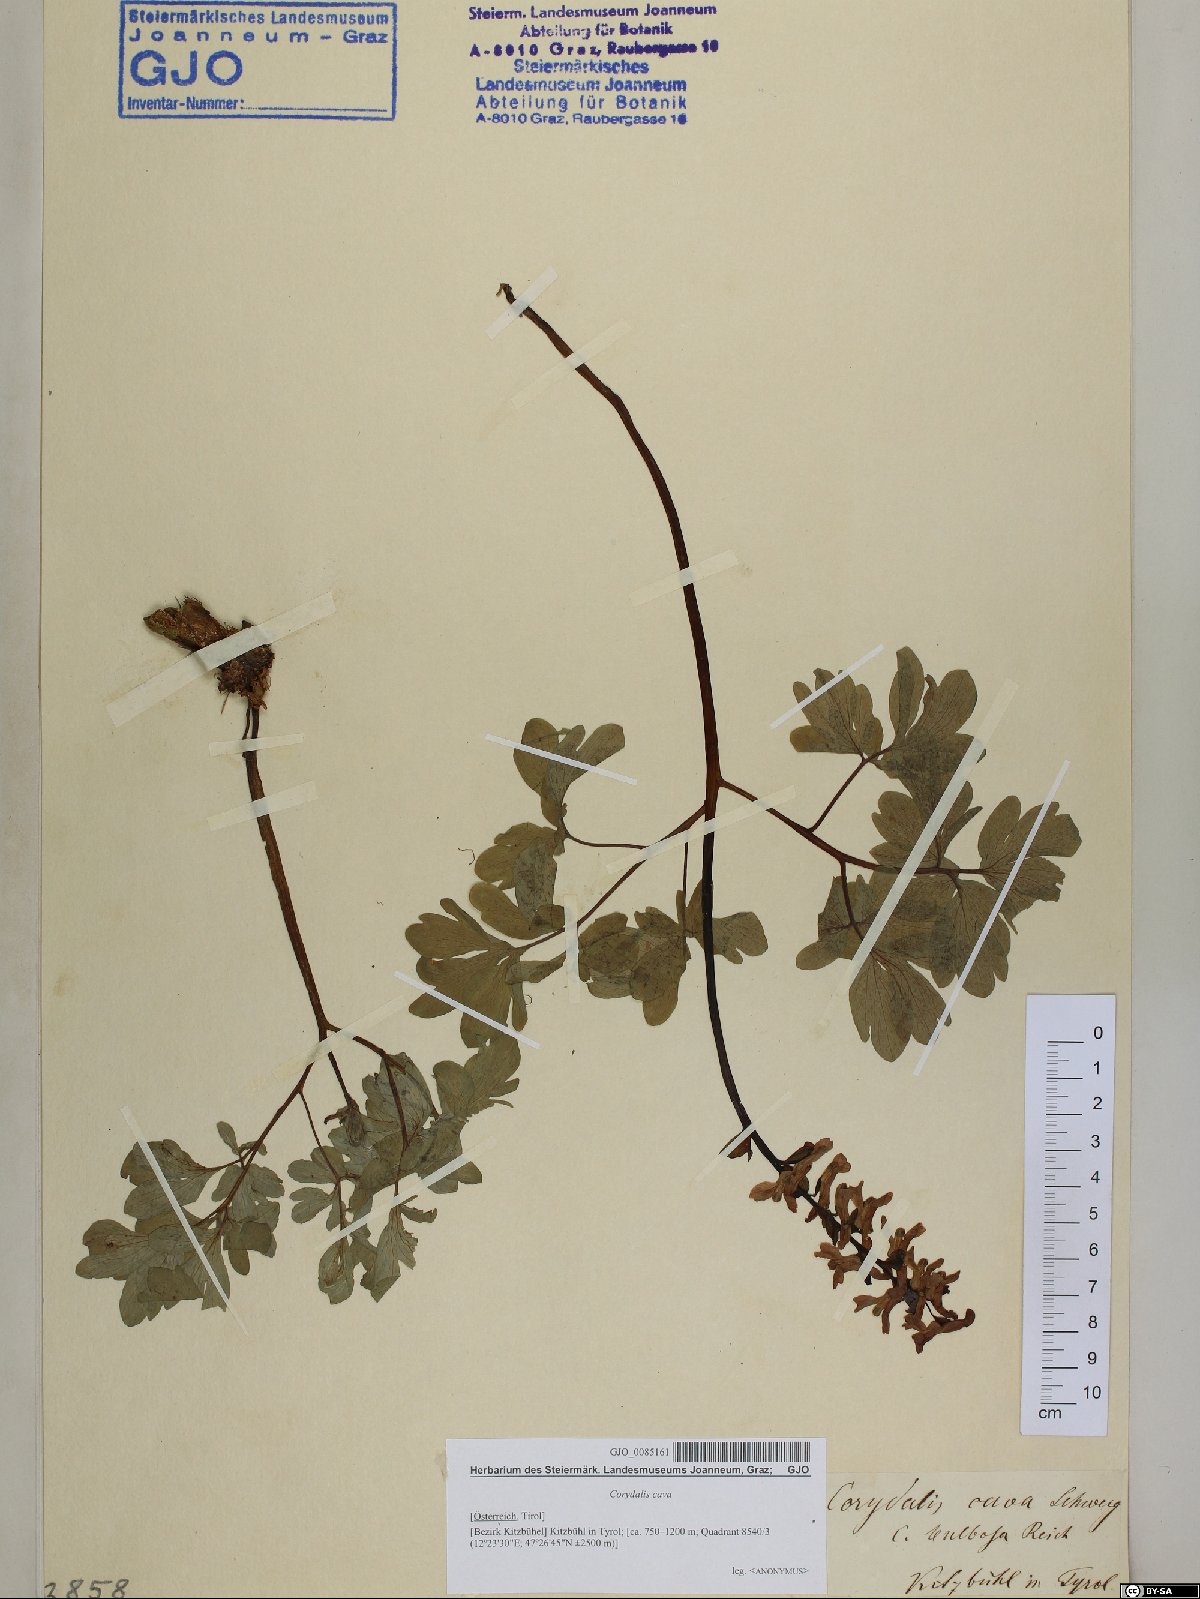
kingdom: Plantae
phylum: Tracheophyta
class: Magnoliopsida
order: Ranunculales
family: Papaveraceae
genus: Corydalis
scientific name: Corydalis cava
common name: Hollowroot
